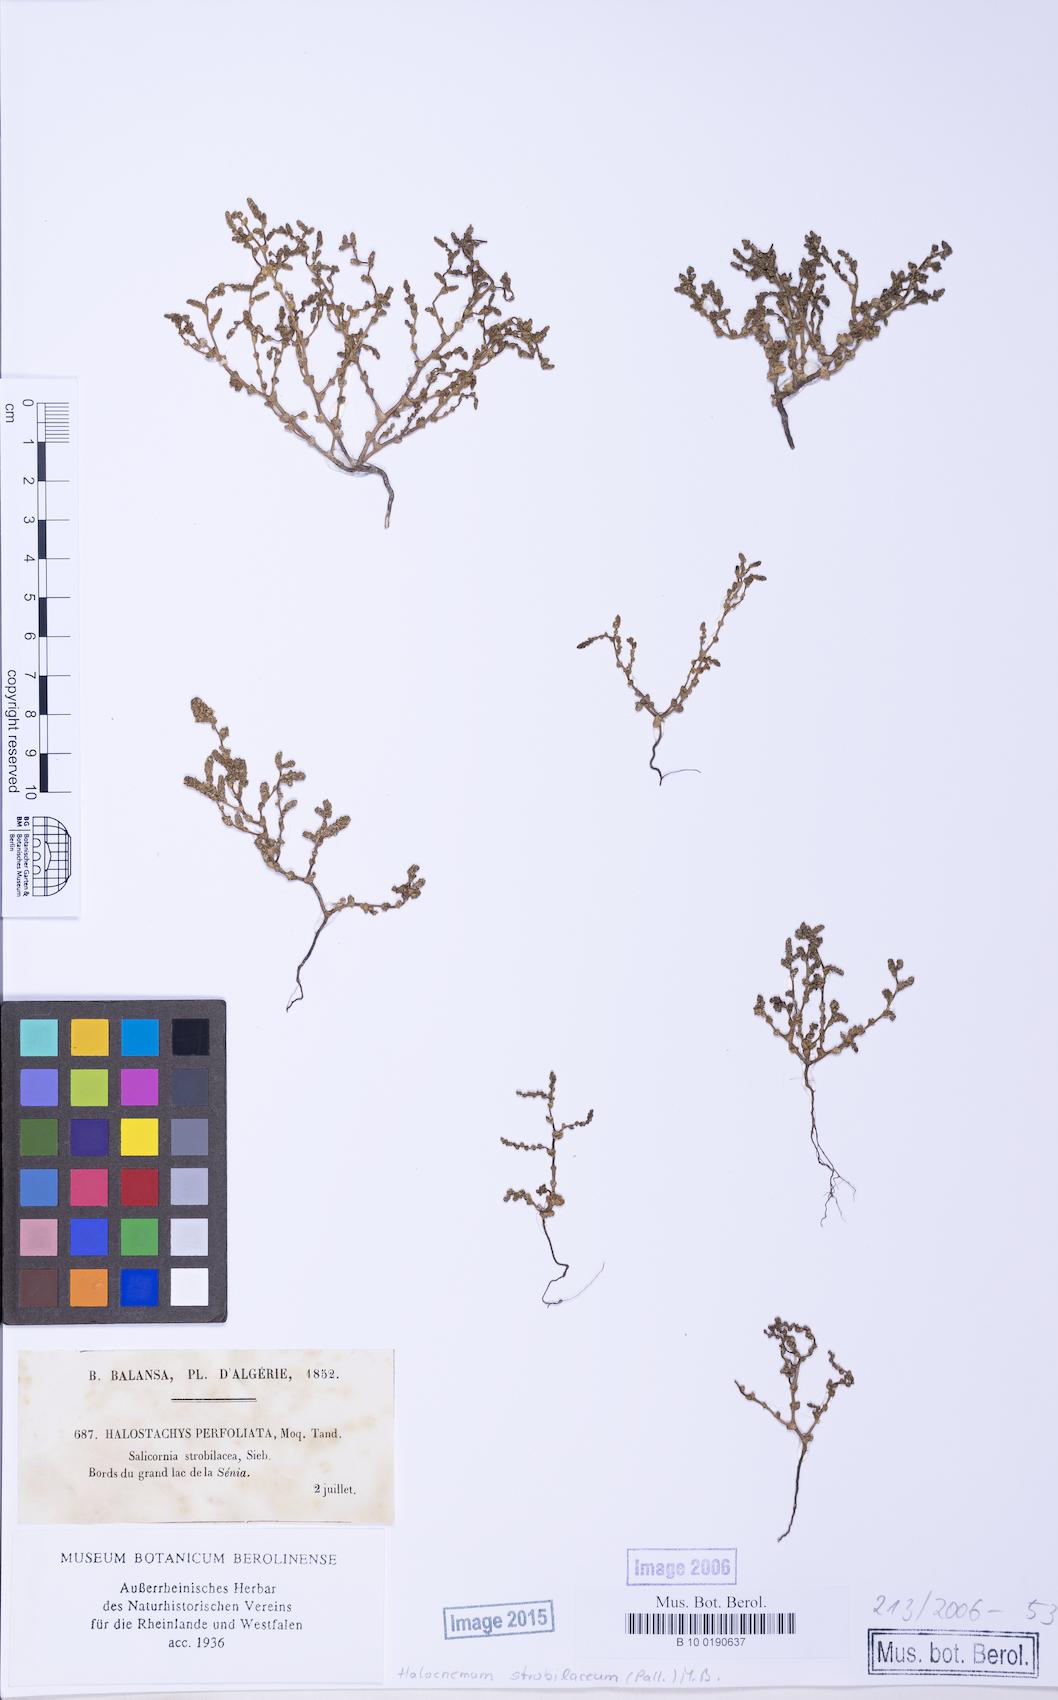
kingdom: Plantae
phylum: Tracheophyta
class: Magnoliopsida
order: Caryophyllales
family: Amaranthaceae
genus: Halocnemum
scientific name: Halocnemum strobilaceum
